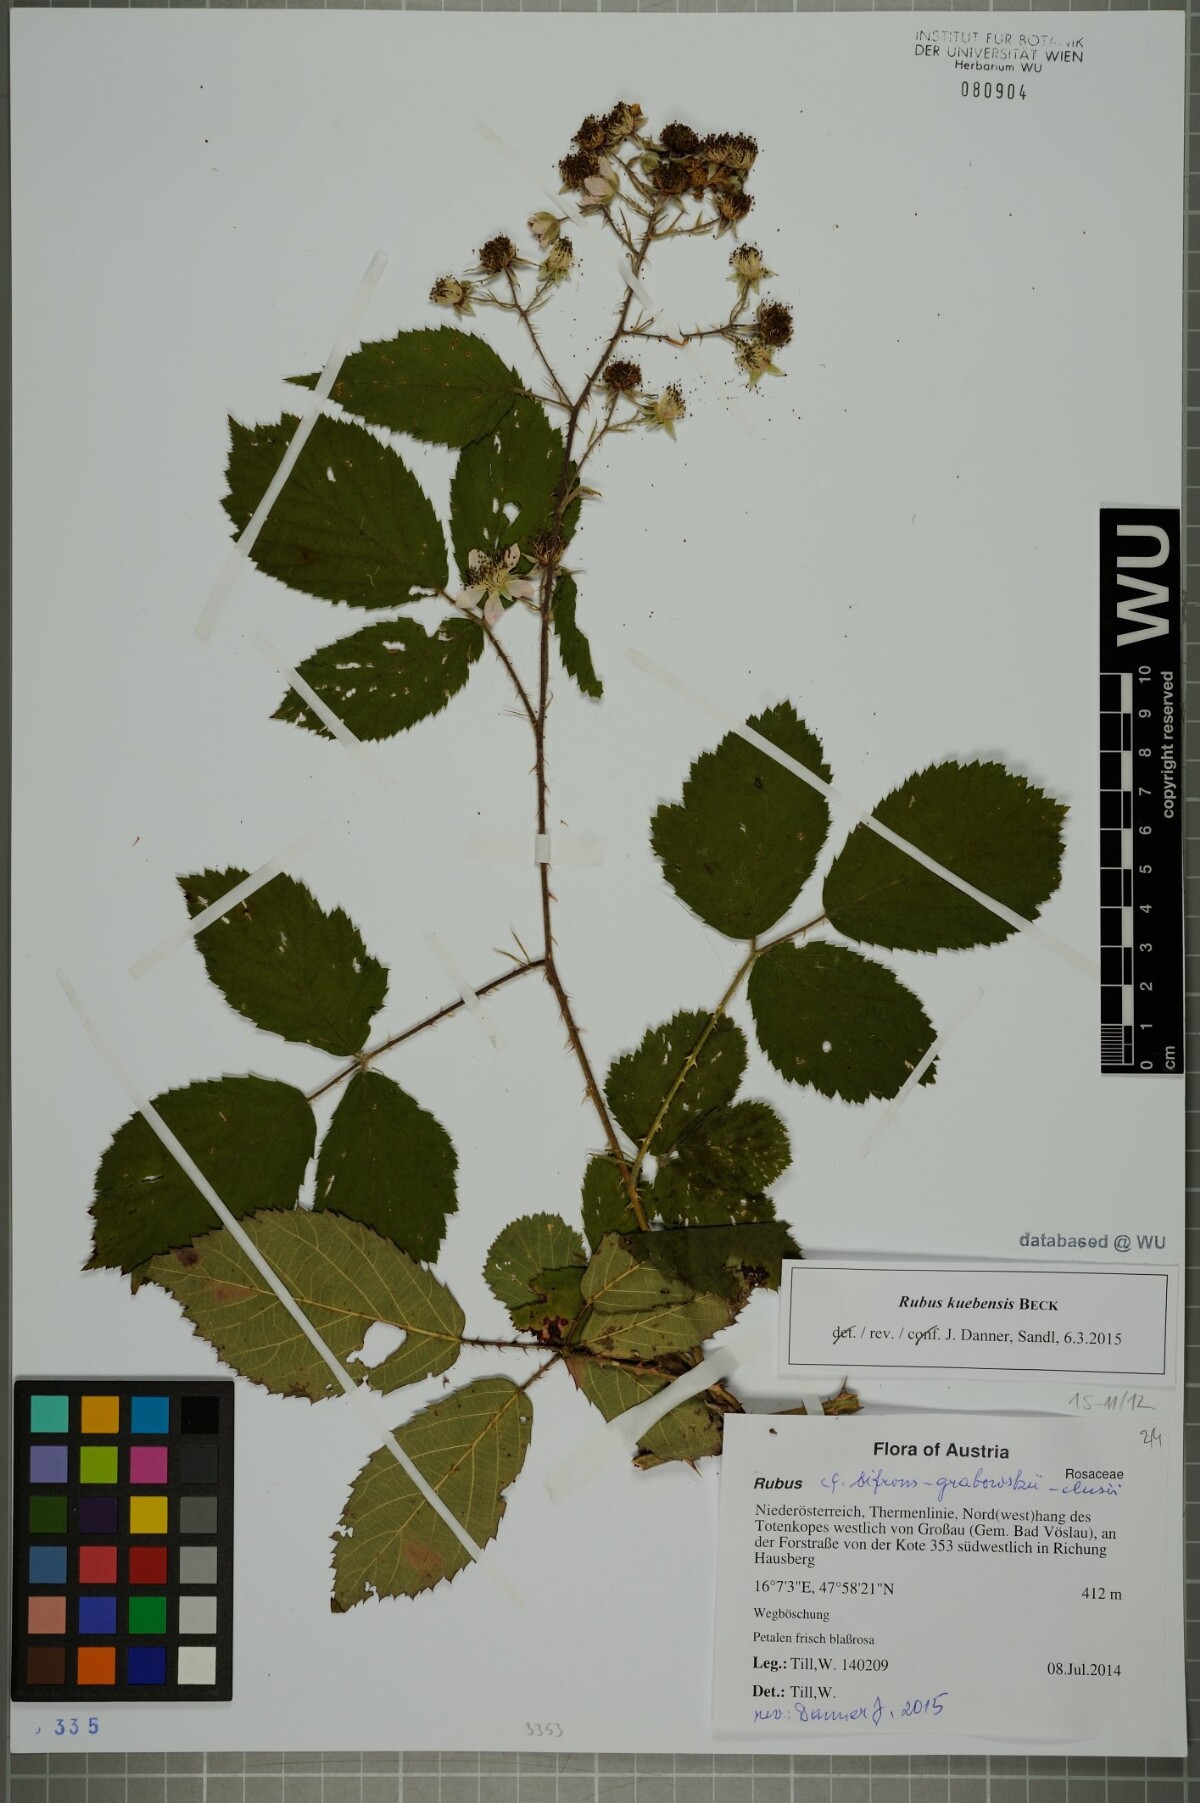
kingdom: Plantae
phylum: Tracheophyta
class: Magnoliopsida
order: Rosales
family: Rosaceae
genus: Rubus
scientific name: Rubus kuebensis
